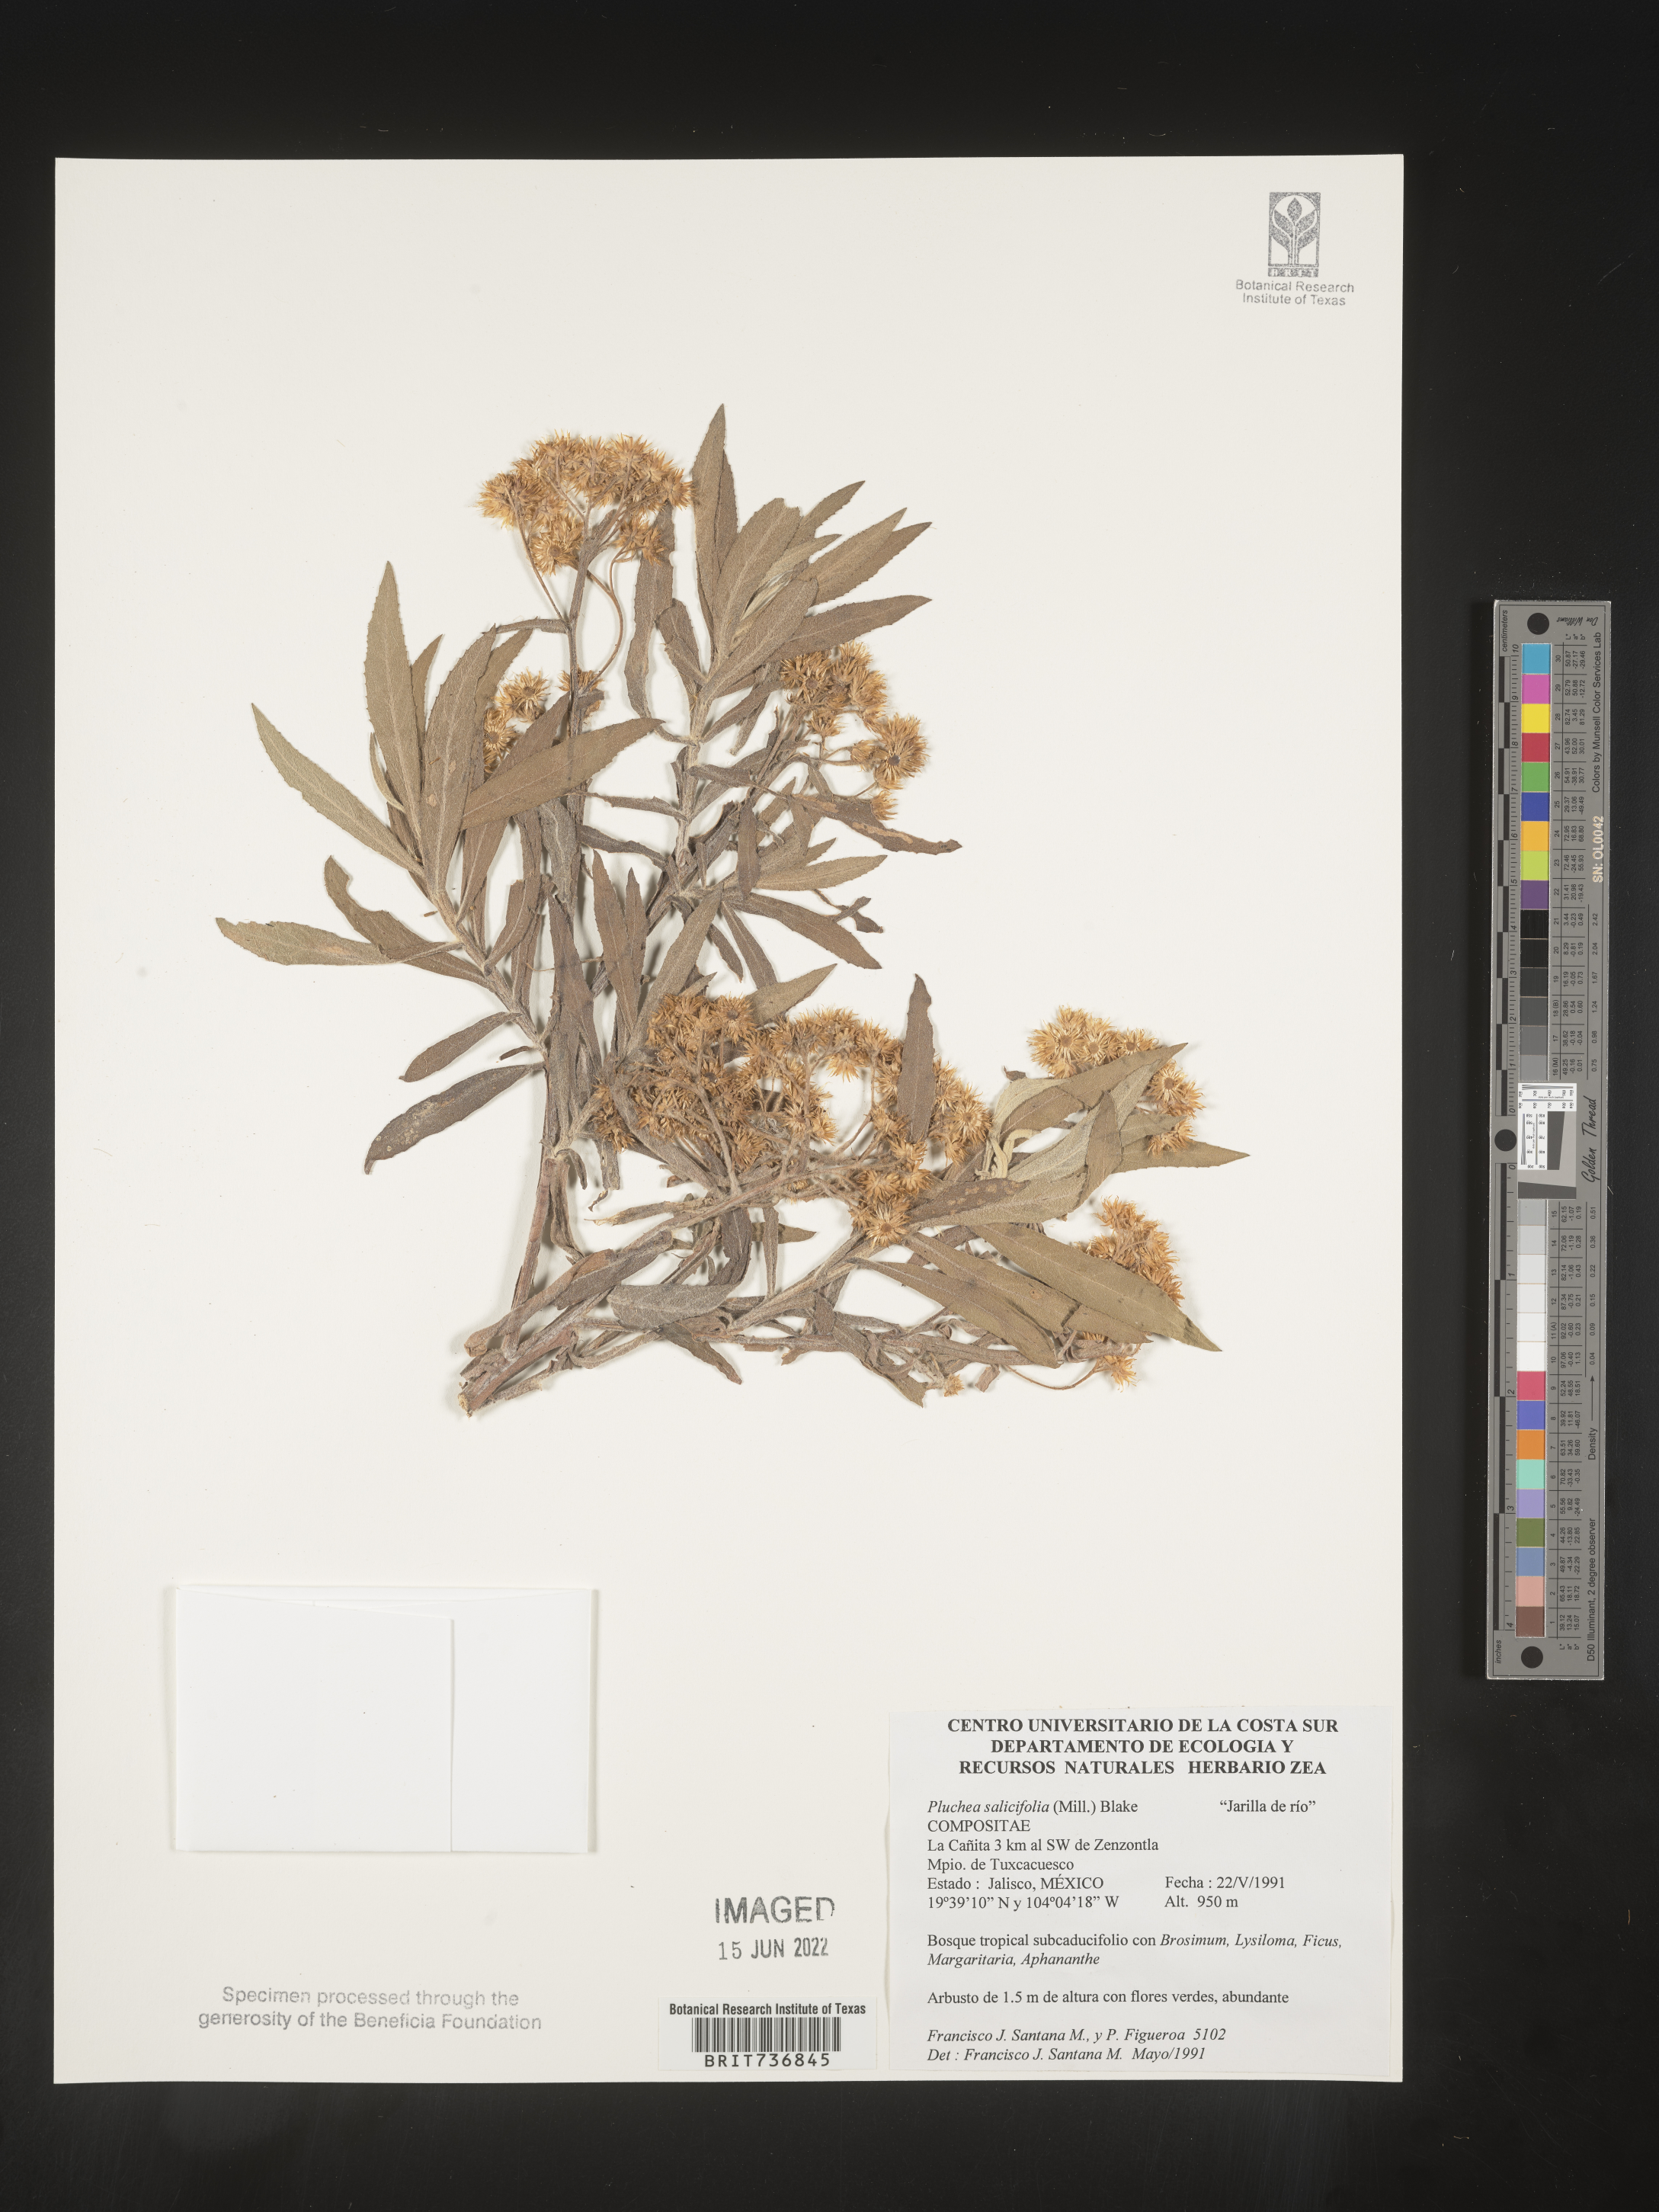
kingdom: Plantae
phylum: Tracheophyta
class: Magnoliopsida
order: Asterales
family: Asteraceae
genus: Pluchea
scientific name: Pluchea
